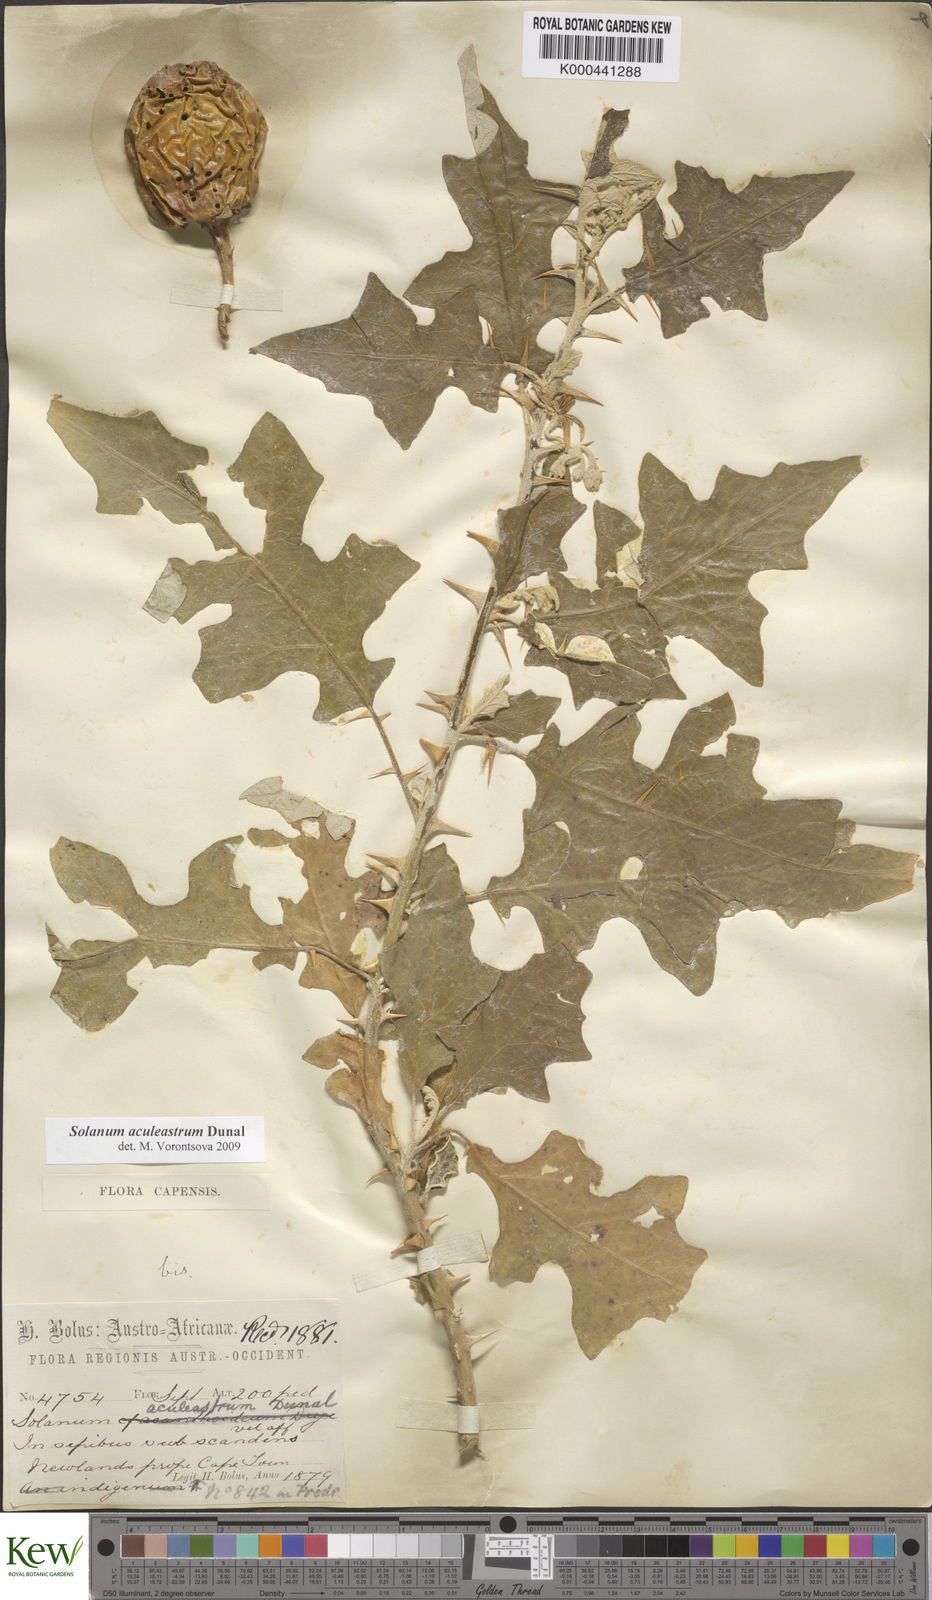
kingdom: Plantae
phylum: Tracheophyta
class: Magnoliopsida
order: Solanales
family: Solanaceae
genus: Solanum
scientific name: Solanum aculeastrum
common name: Goat bitter-apple
